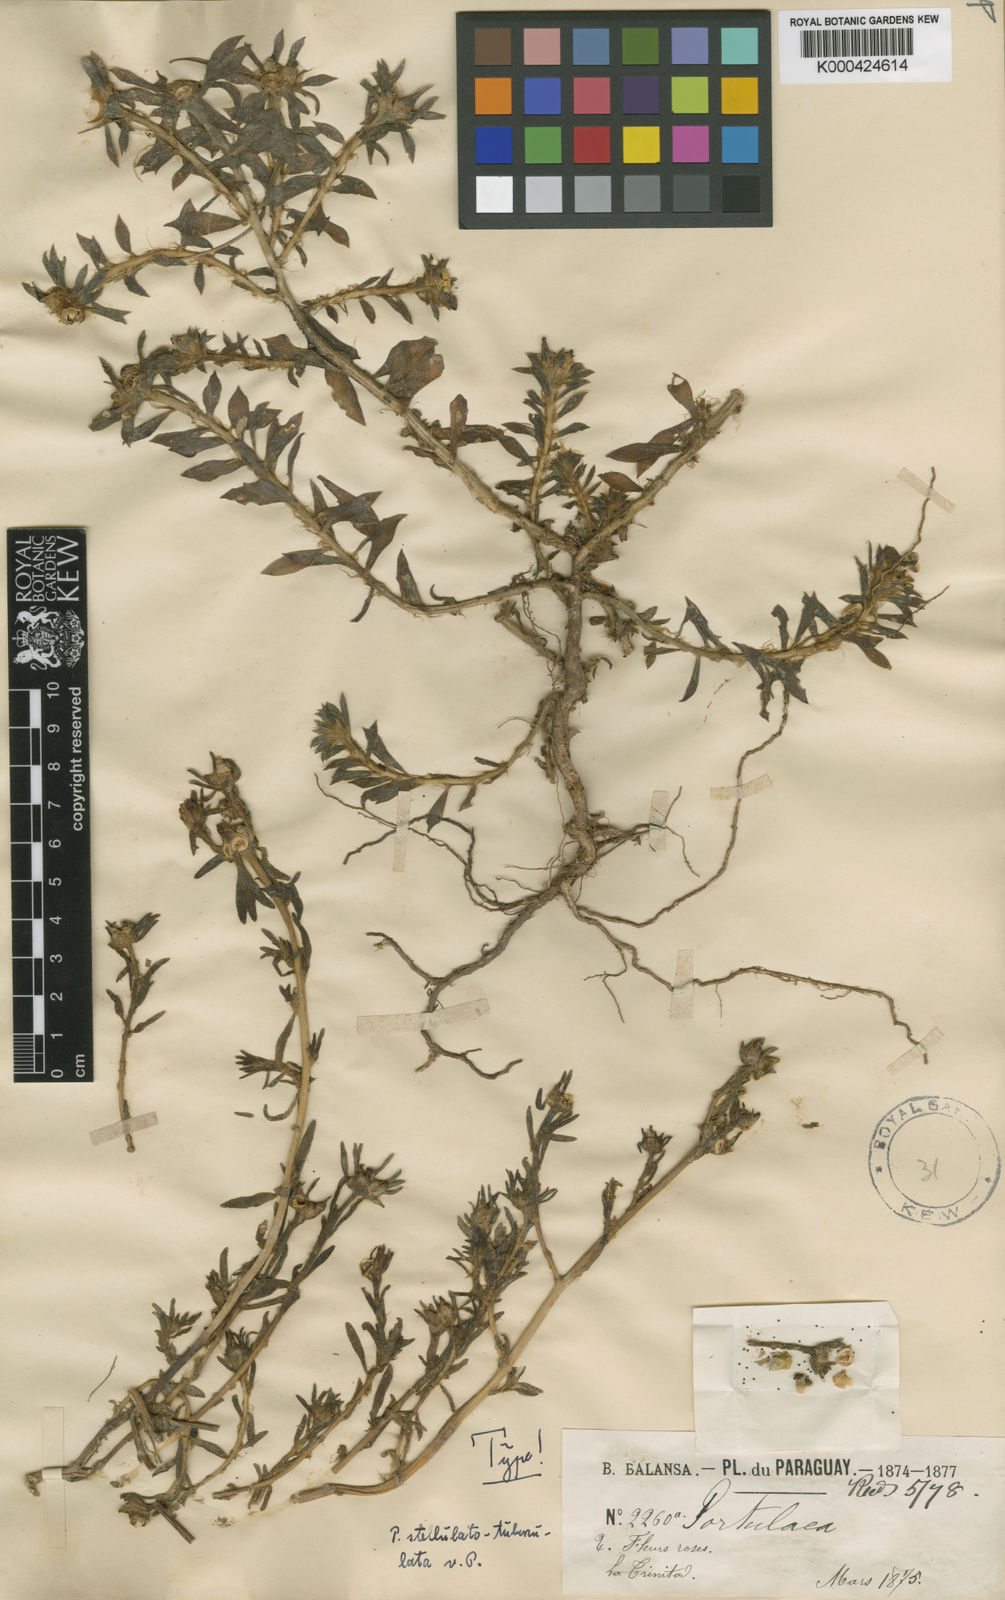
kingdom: Plantae
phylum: Tracheophyta
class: Magnoliopsida
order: Caryophyllales
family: Portulacaceae
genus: Portulaca
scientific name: Portulaca stellulatotuberculata
